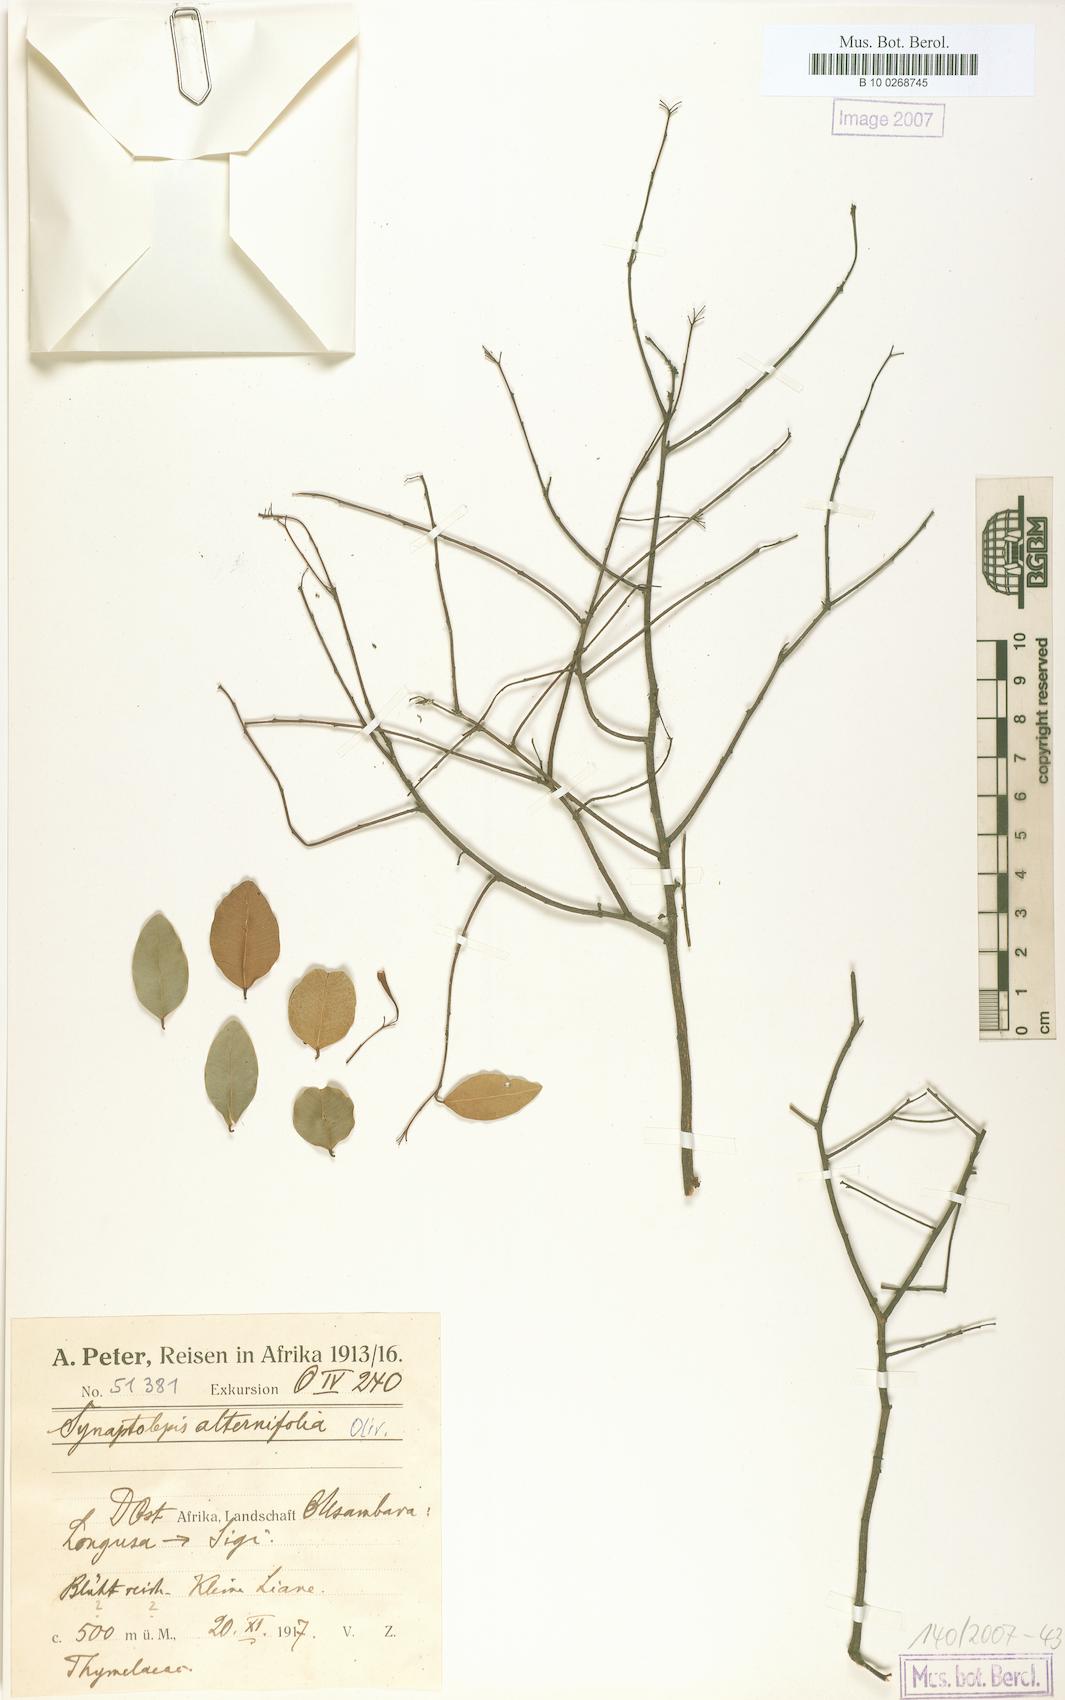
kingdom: Plantae
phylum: Tracheophyta
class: Magnoliopsida
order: Malvales
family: Thymelaeaceae
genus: Synaptolepis
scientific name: Synaptolepis alternifolia
